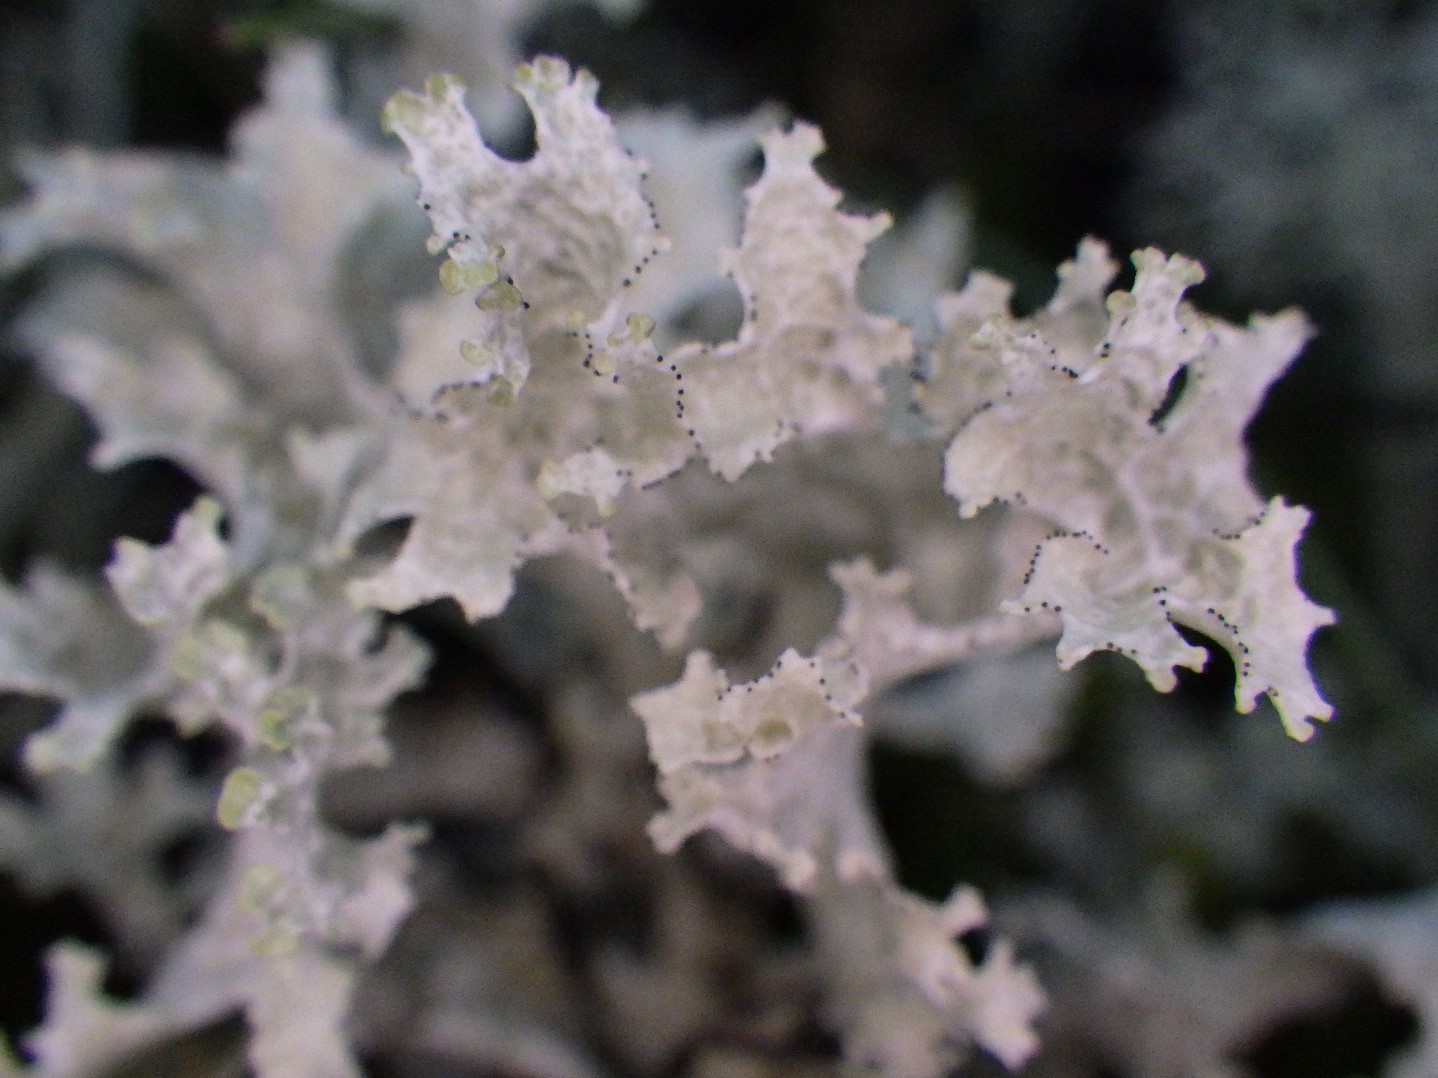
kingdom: Fungi
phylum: Ascomycota
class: Lecanoromycetes
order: Lecanorales
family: Parmeliaceae
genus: Nephromopsis
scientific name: Nephromopsis nivalis
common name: sne-kruslav
